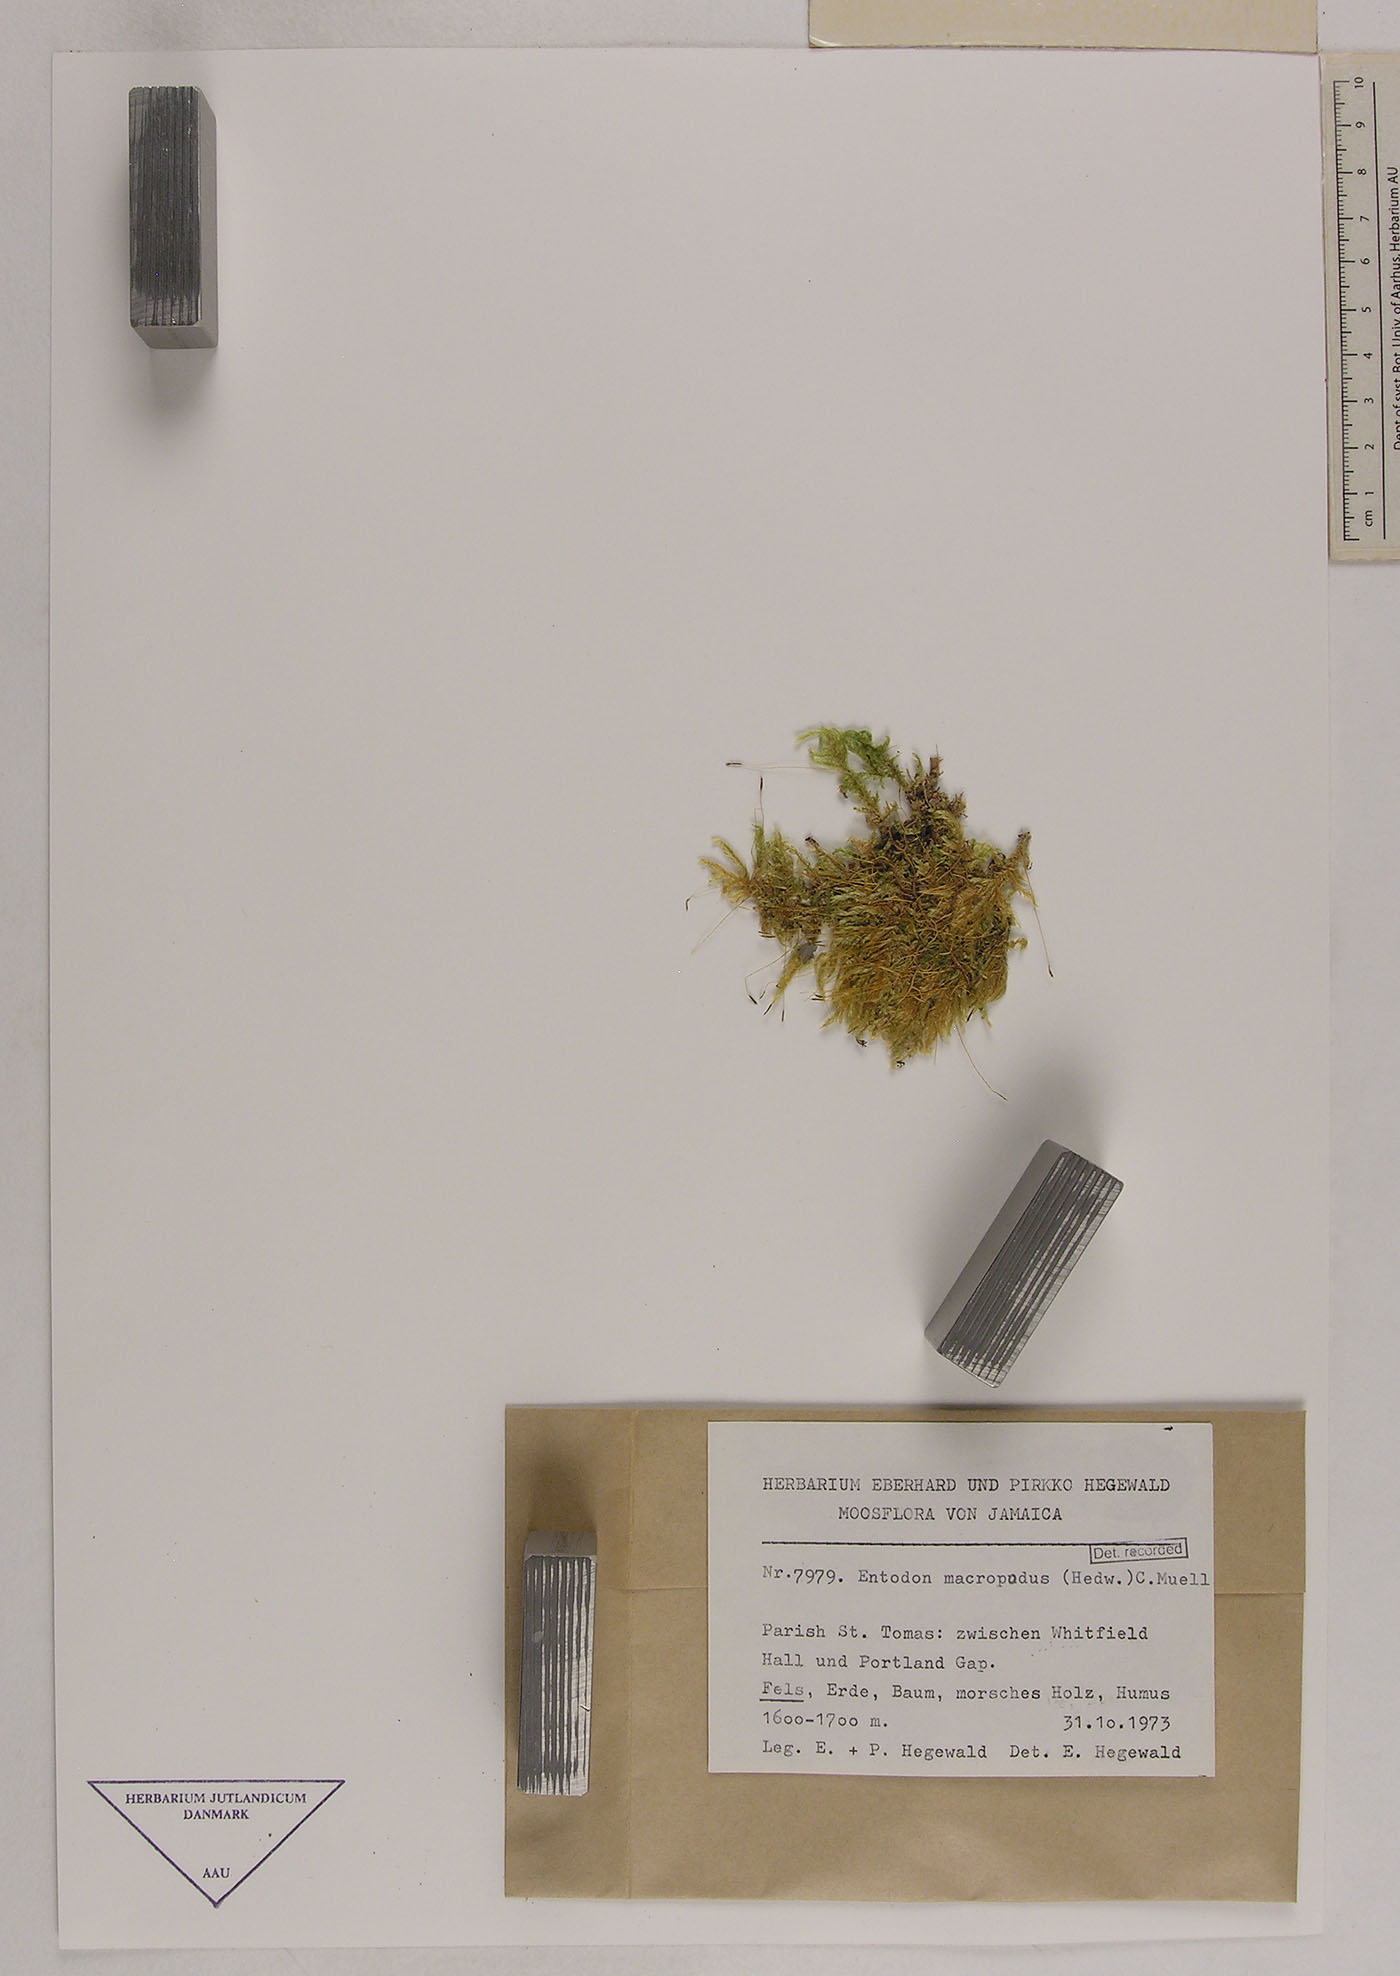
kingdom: Plantae
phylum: Bryophyta
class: Bryopsida
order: Hypnales
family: Entodontaceae
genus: Entodon
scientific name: Entodon macropodus
